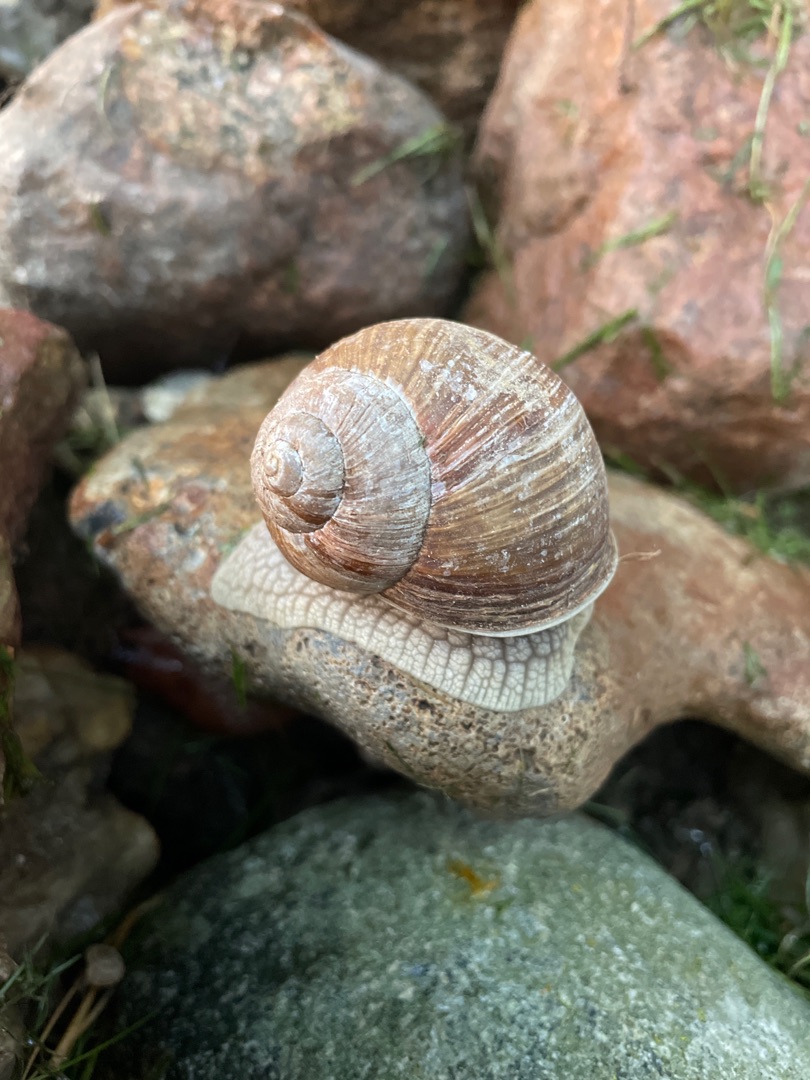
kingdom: Animalia
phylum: Mollusca
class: Gastropoda
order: Stylommatophora
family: Helicidae
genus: Helix
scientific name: Helix pomatia
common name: Vinbjergsnegl
